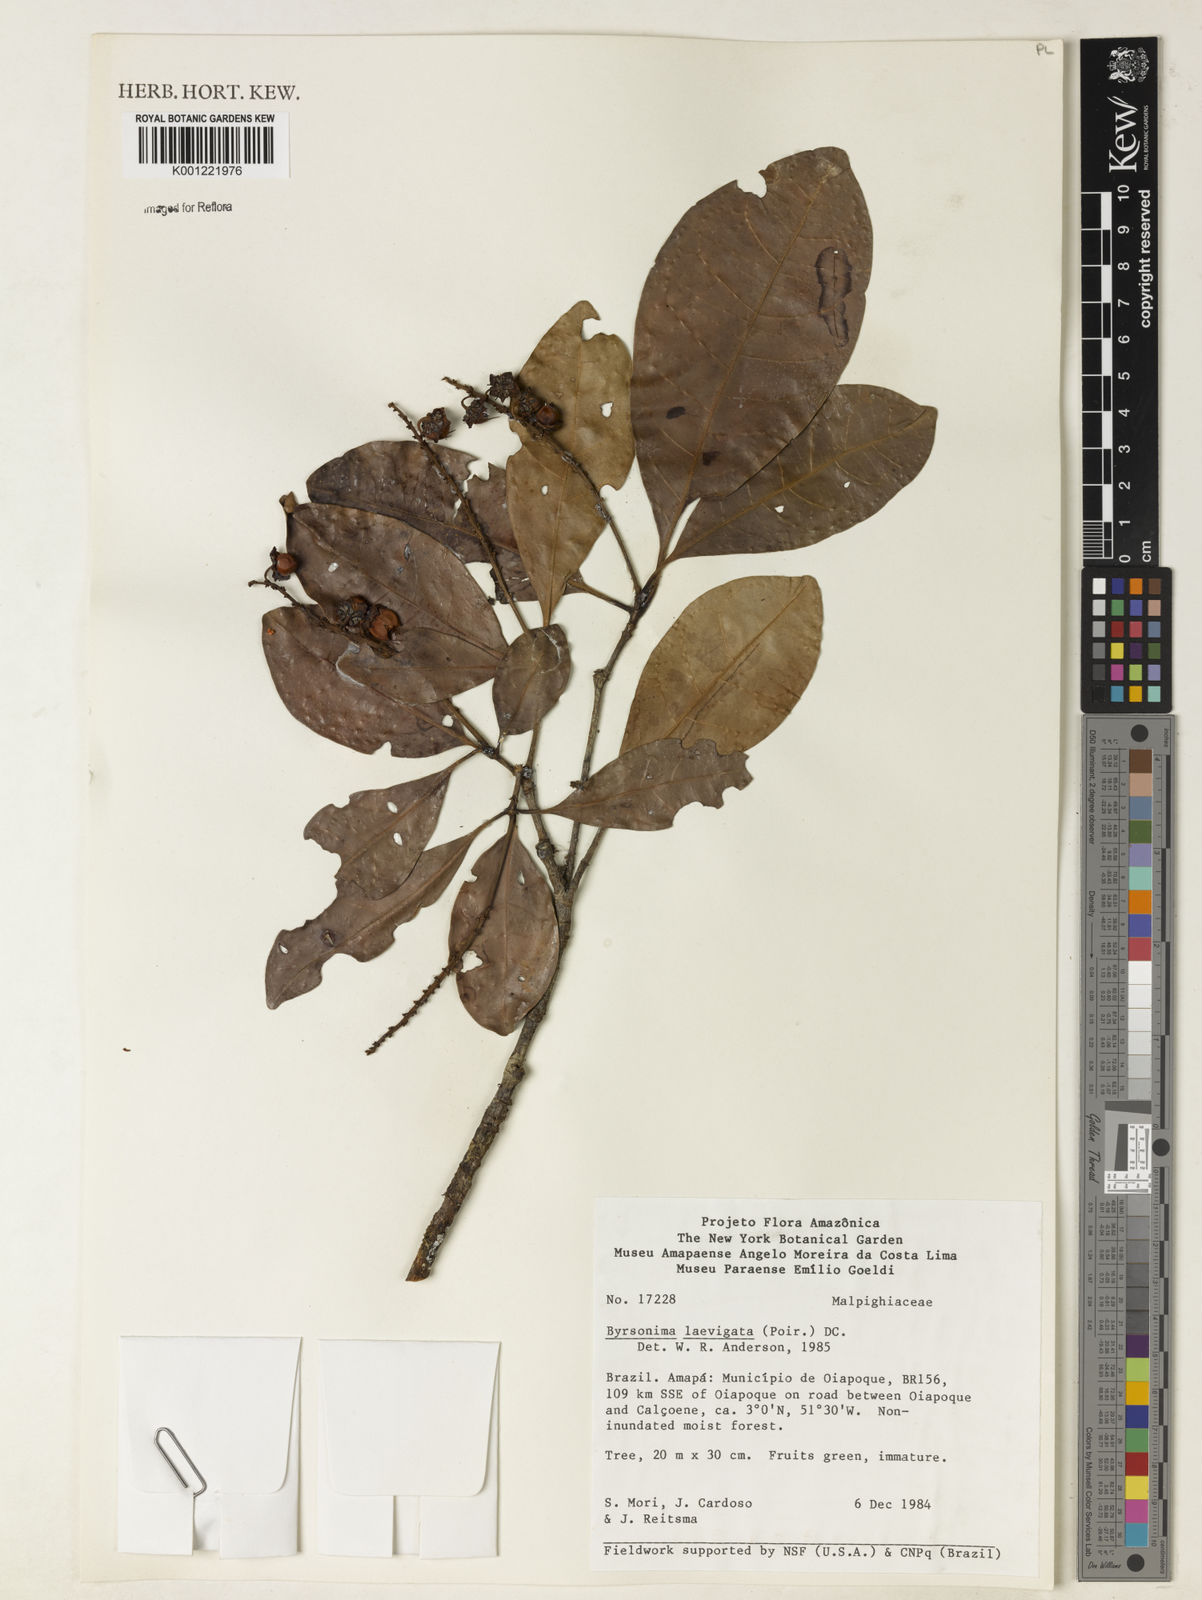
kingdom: Plantae
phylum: Tracheophyta
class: Magnoliopsida
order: Malpighiales
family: Malpighiaceae
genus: Byrsonima
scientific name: Byrsonima laevigata
